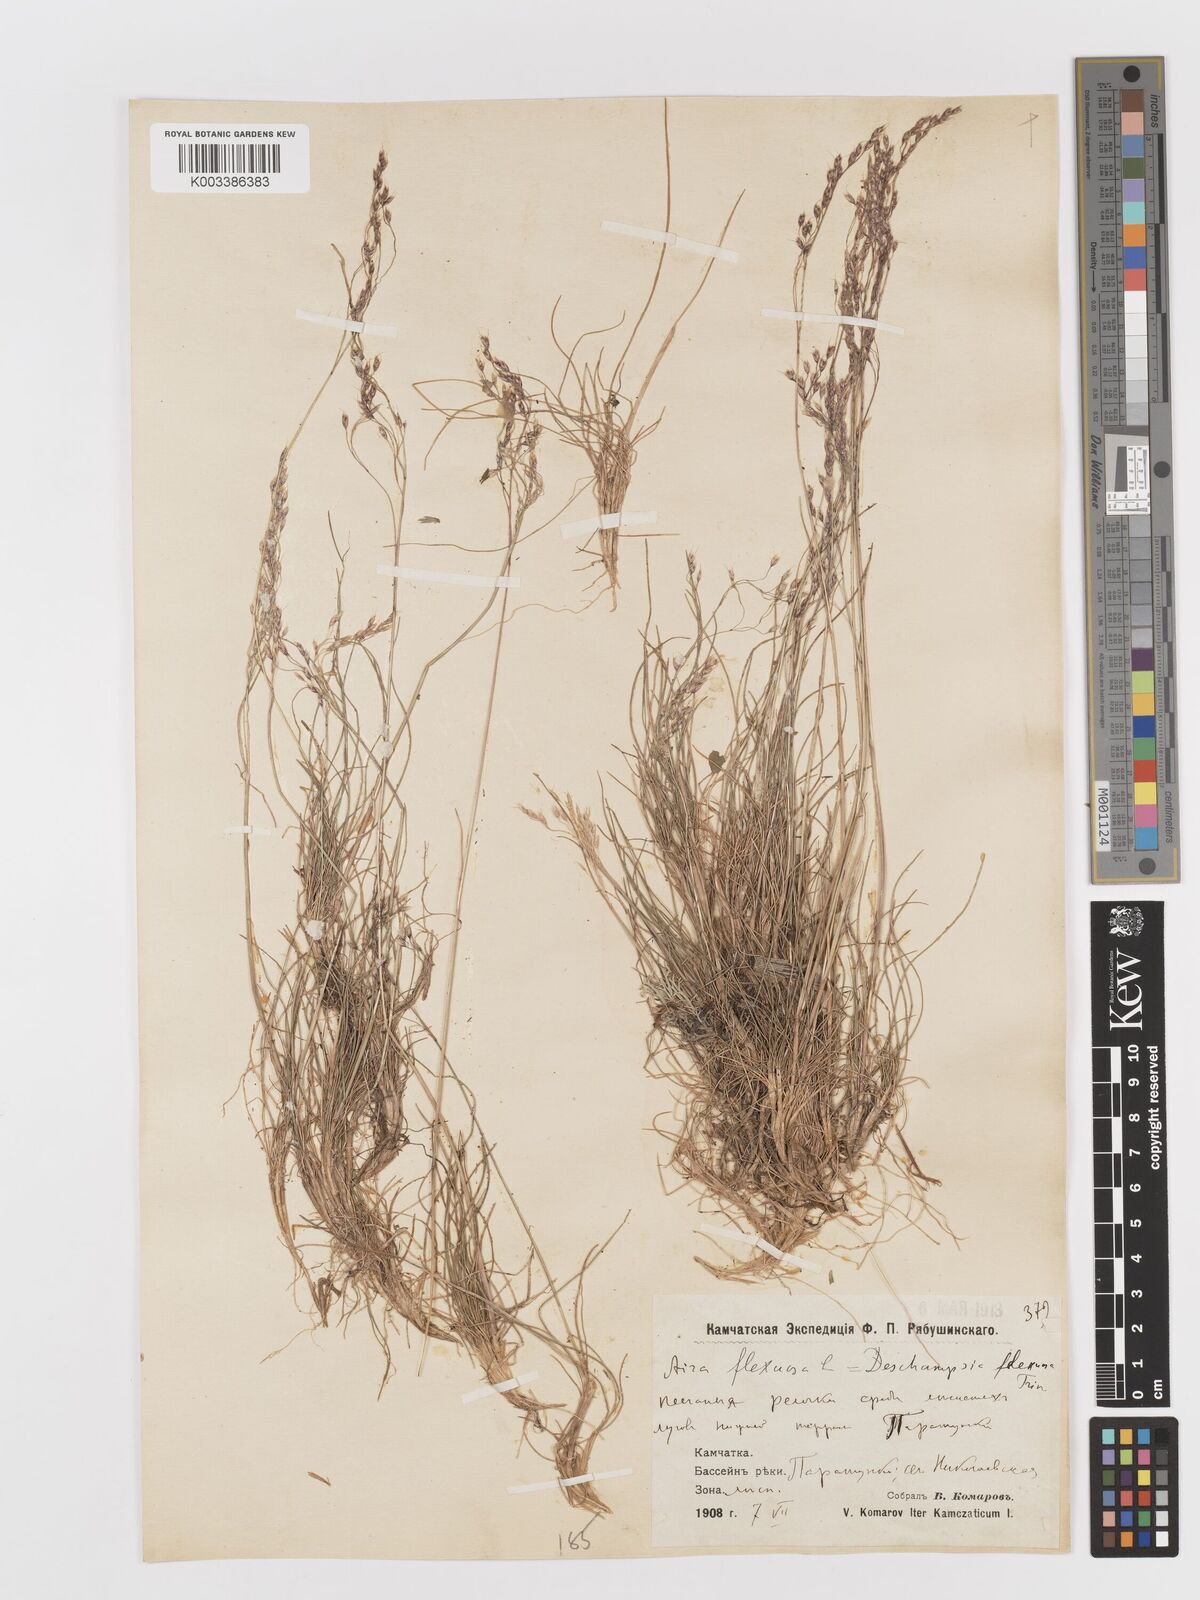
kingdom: Plantae
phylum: Tracheophyta
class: Liliopsida
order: Poales
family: Poaceae
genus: Avenella
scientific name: Avenella flexuosa
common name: Wavy hairgrass
